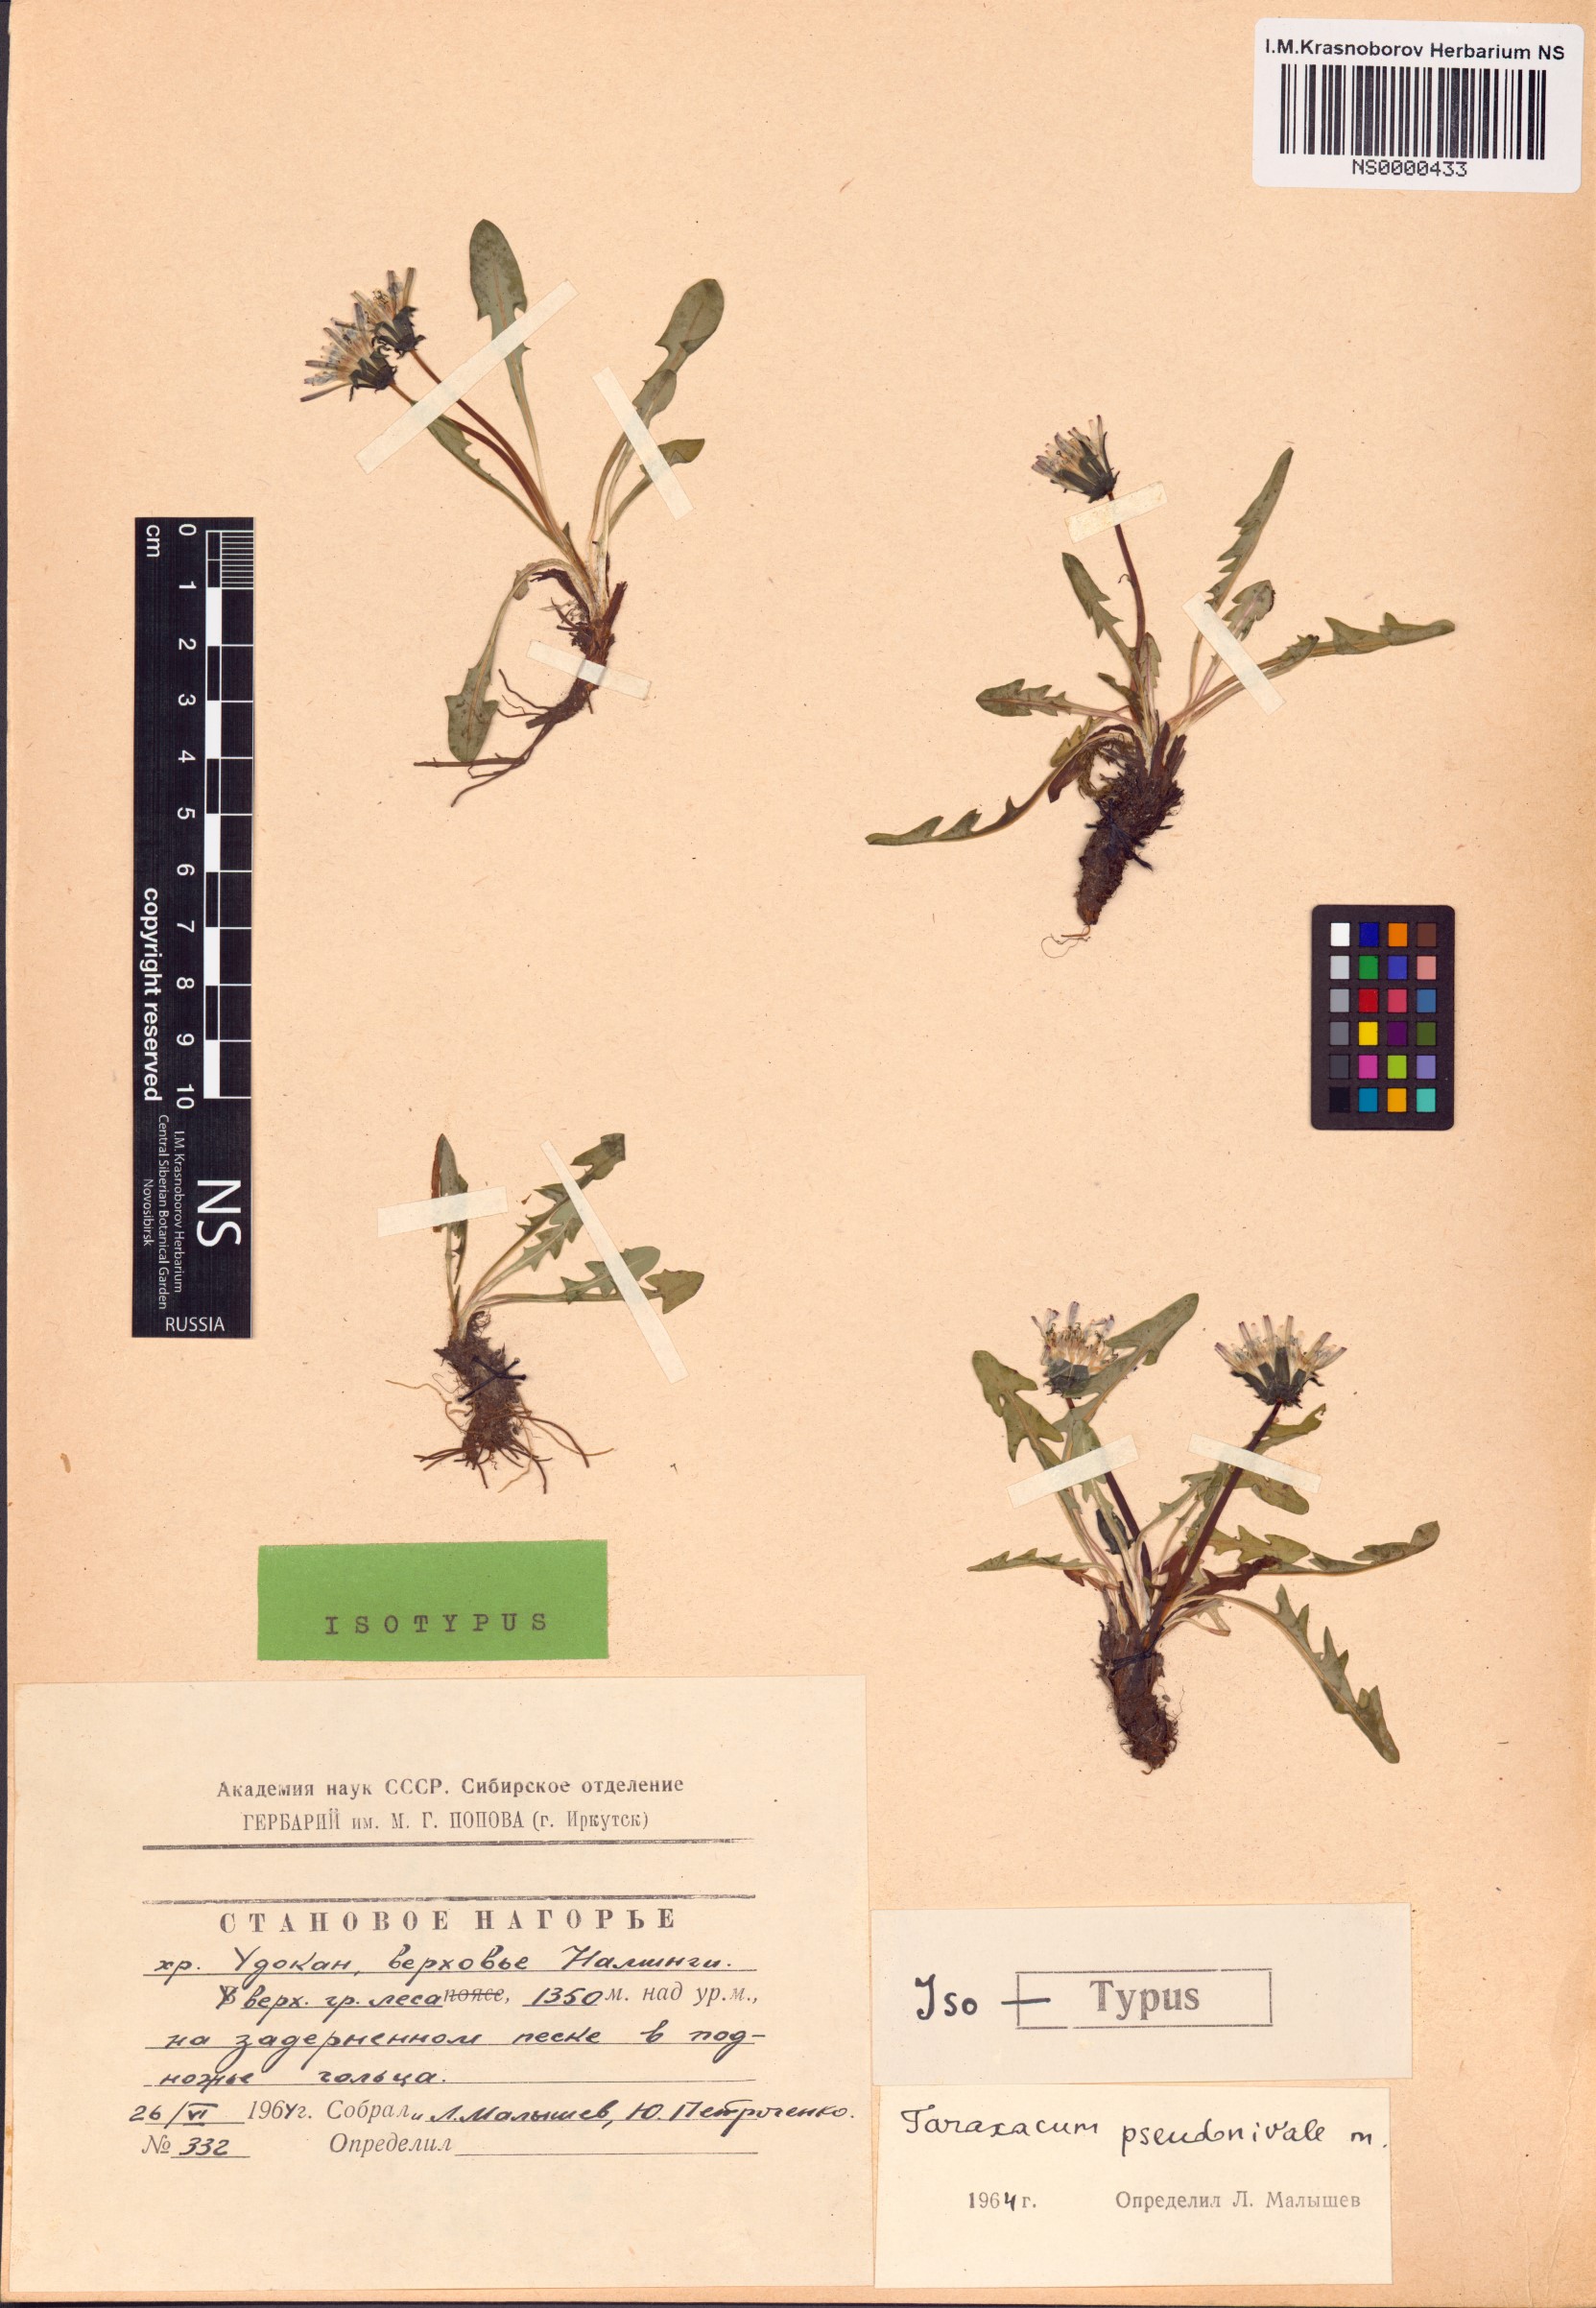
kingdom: Plantae
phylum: Tracheophyta
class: Magnoliopsida
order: Asterales
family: Asteraceae
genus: Taraxacum
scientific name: Taraxacum pseudonivale
